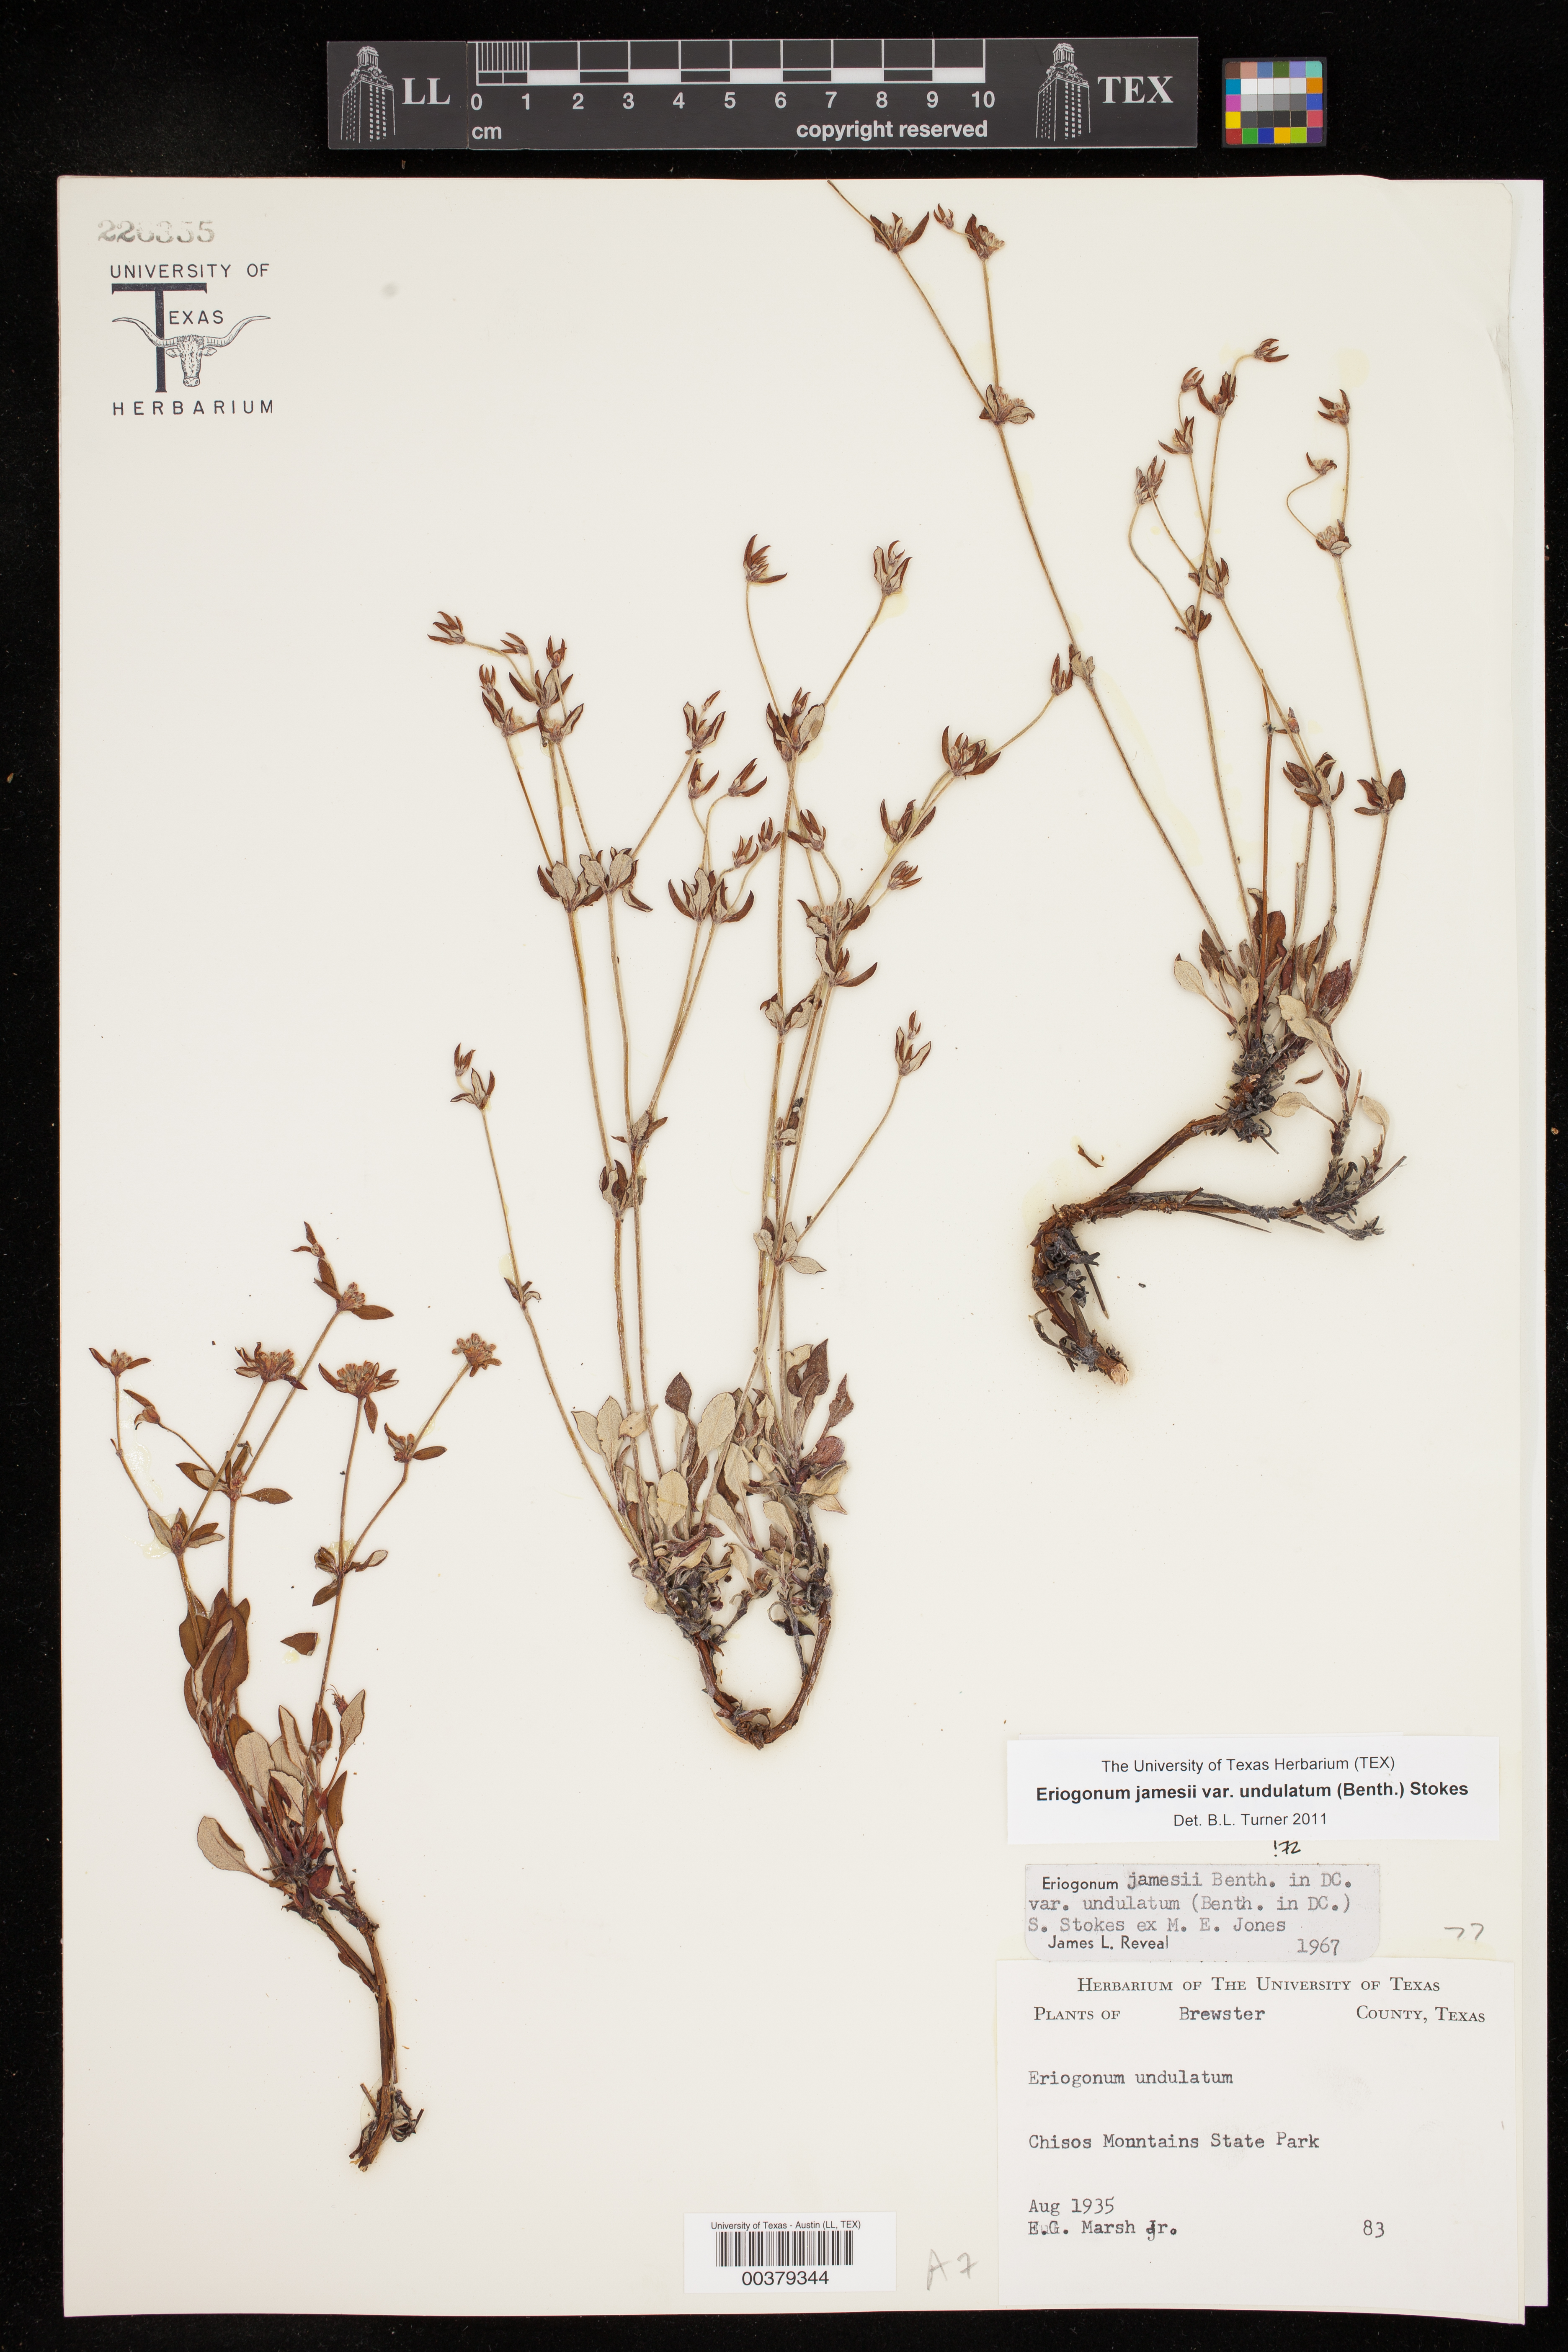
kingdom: Plantae
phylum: Tracheophyta
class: Magnoliopsida
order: Caryophyllales
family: Polygonaceae
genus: Eriogonum
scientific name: Eriogonum jamesii
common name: Antelope-sage
